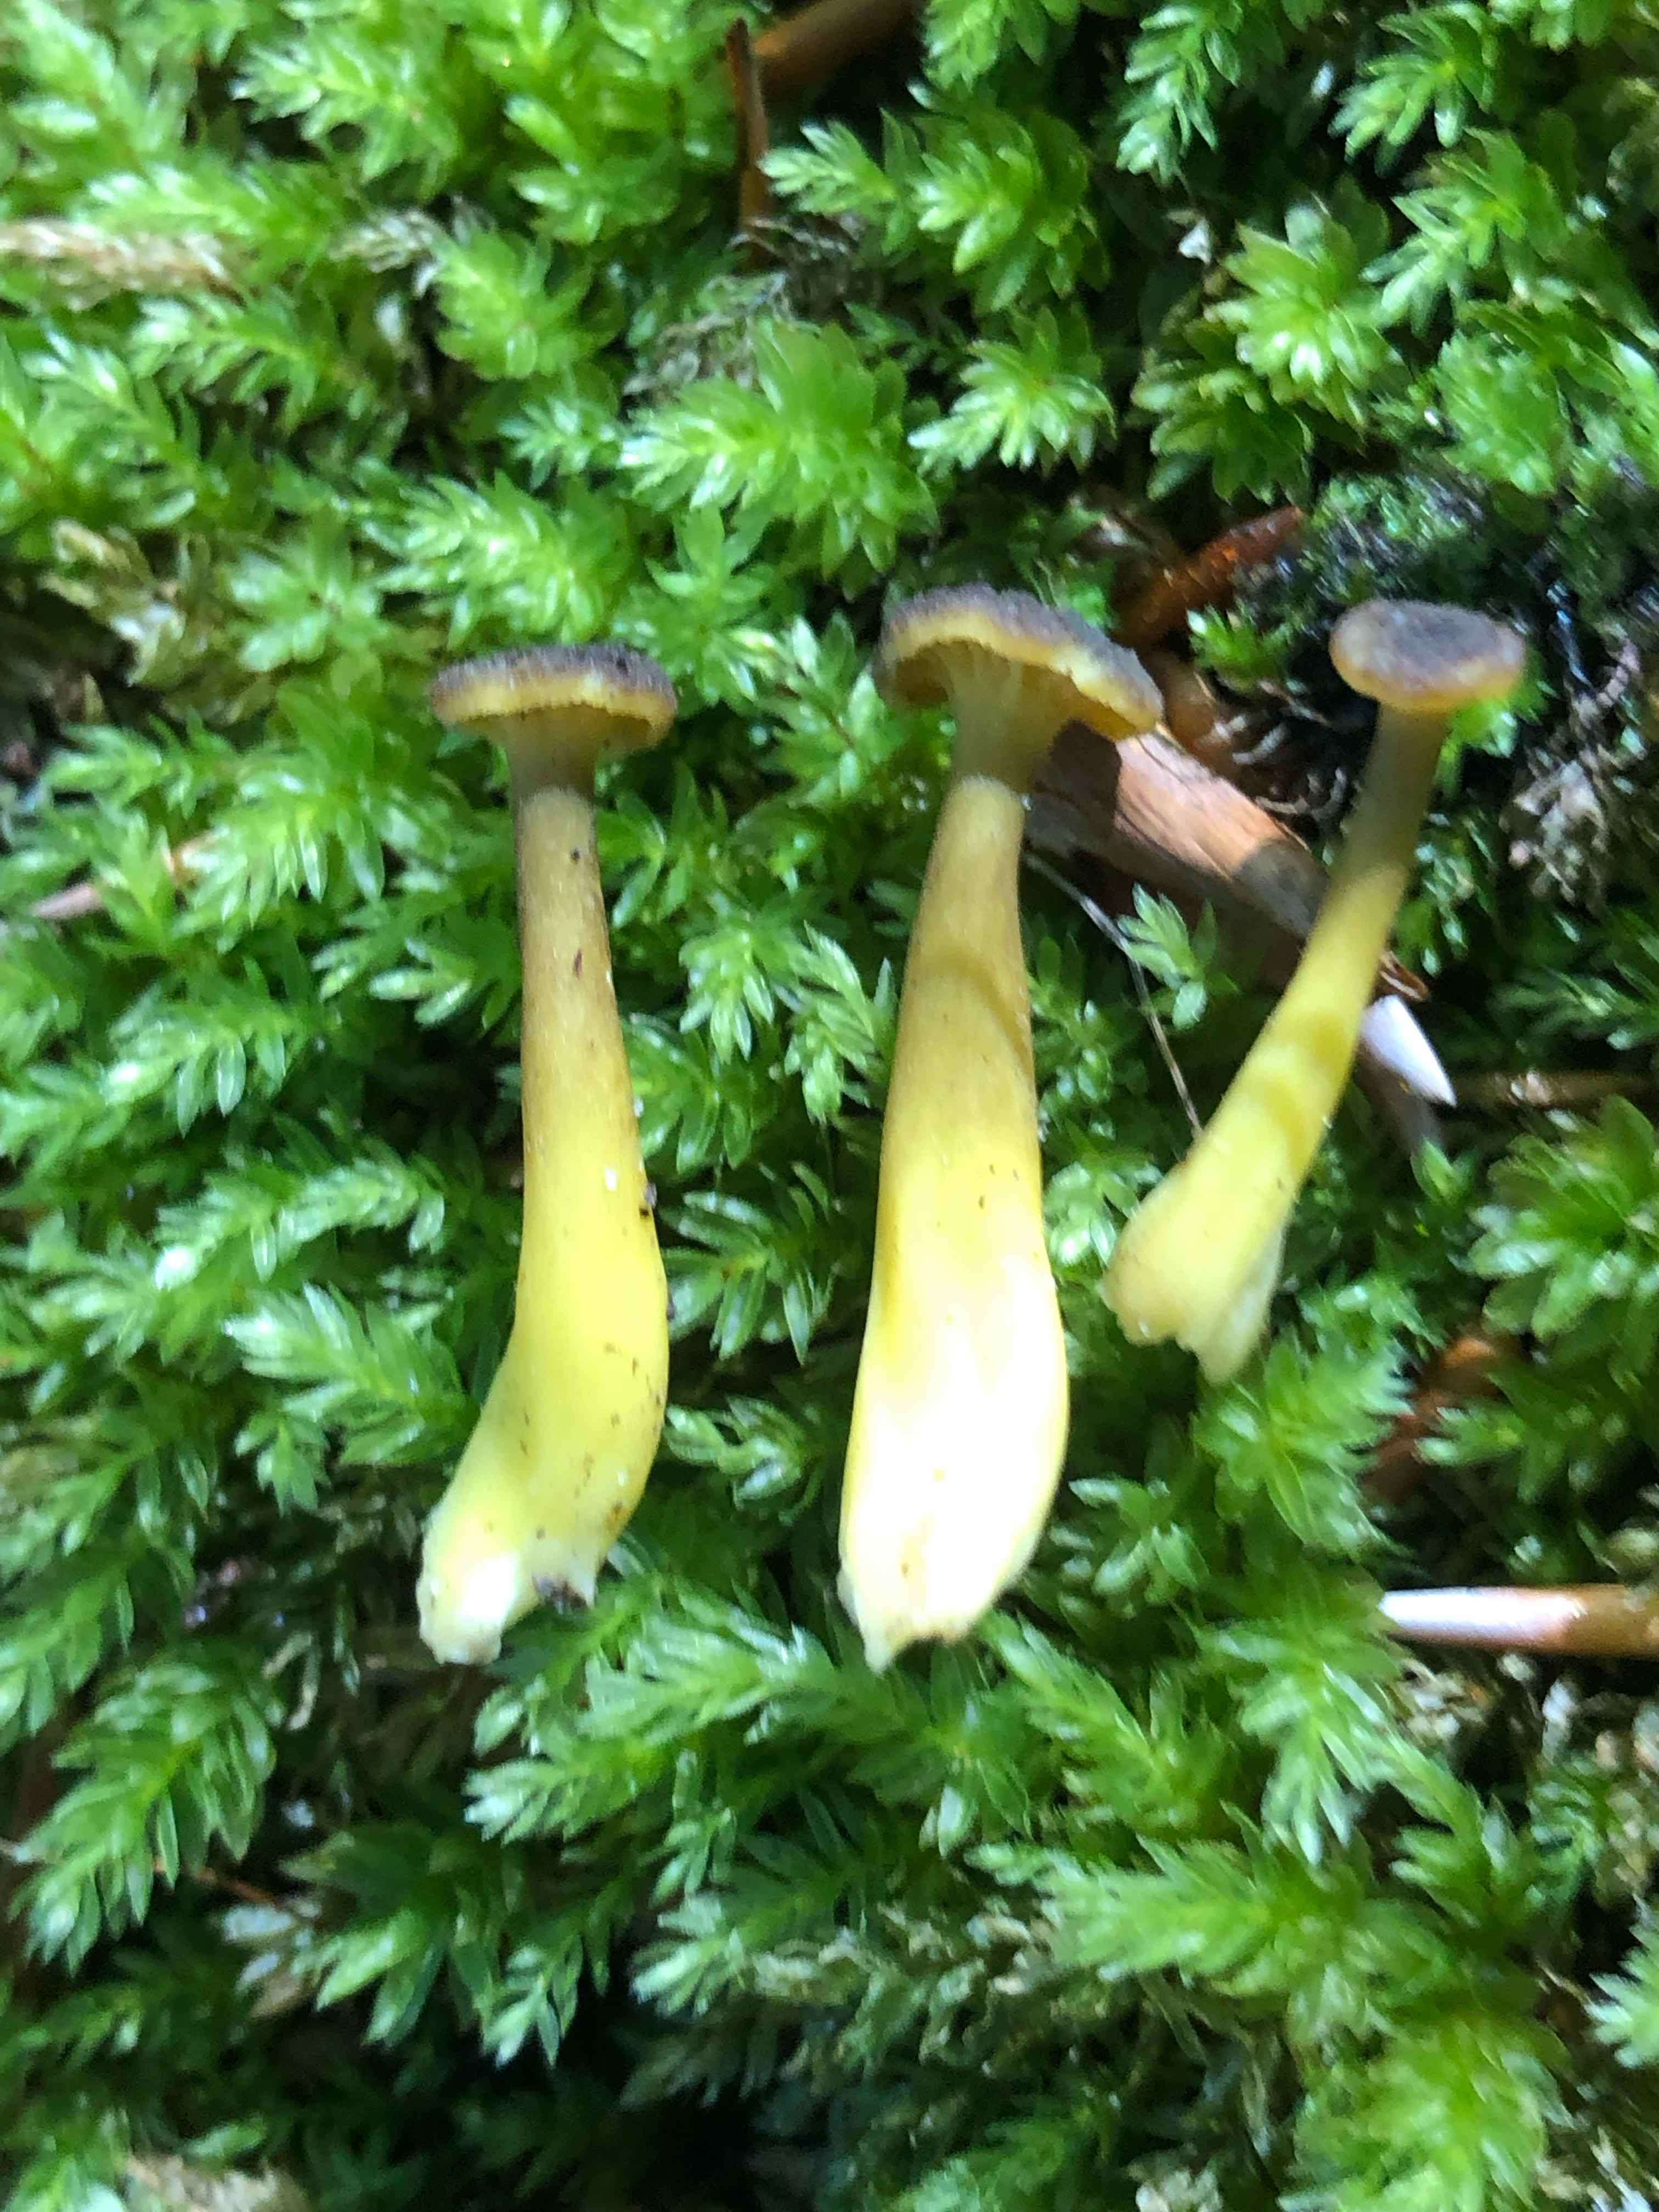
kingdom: Fungi
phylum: Basidiomycota
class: Agaricomycetes
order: Cantharellales
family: Hydnaceae
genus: Craterellus
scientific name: Craterellus tubaeformis
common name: tragt-kantarel
